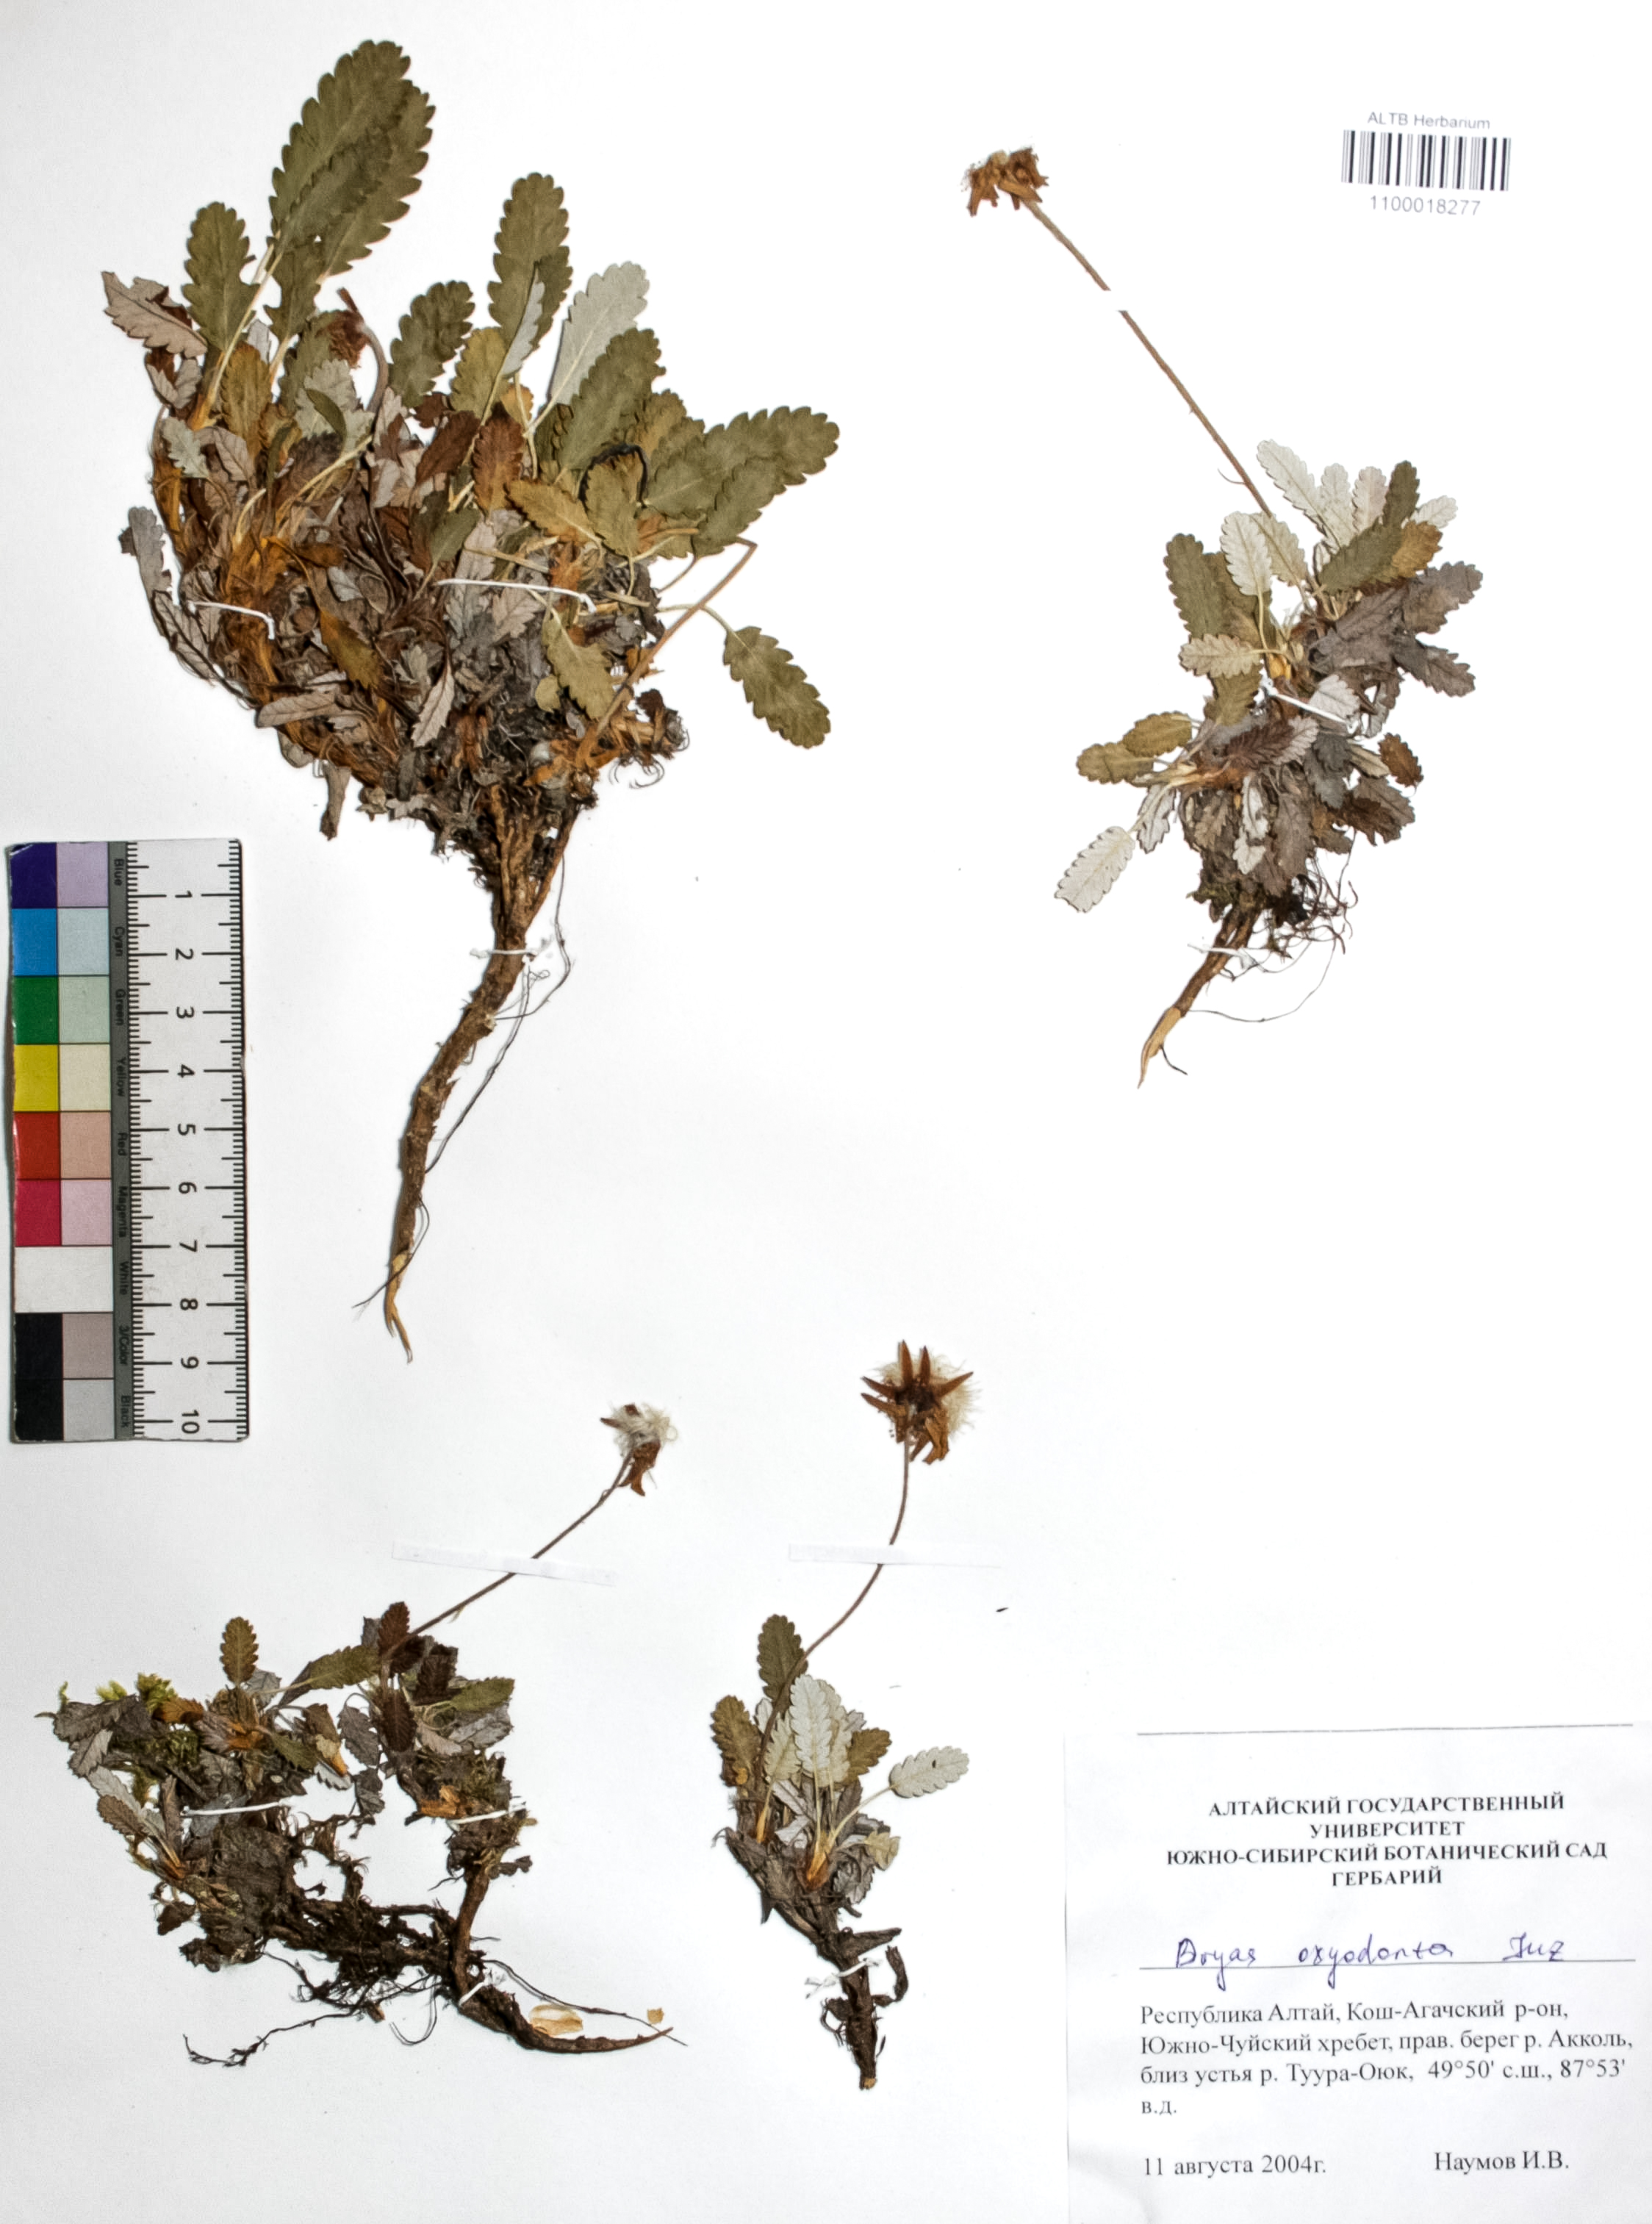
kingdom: Plantae
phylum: Tracheophyta
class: Magnoliopsida
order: Rosales
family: Rosaceae
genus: Dryas
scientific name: Dryas octopetala
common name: Eight-petal mountain-avens
